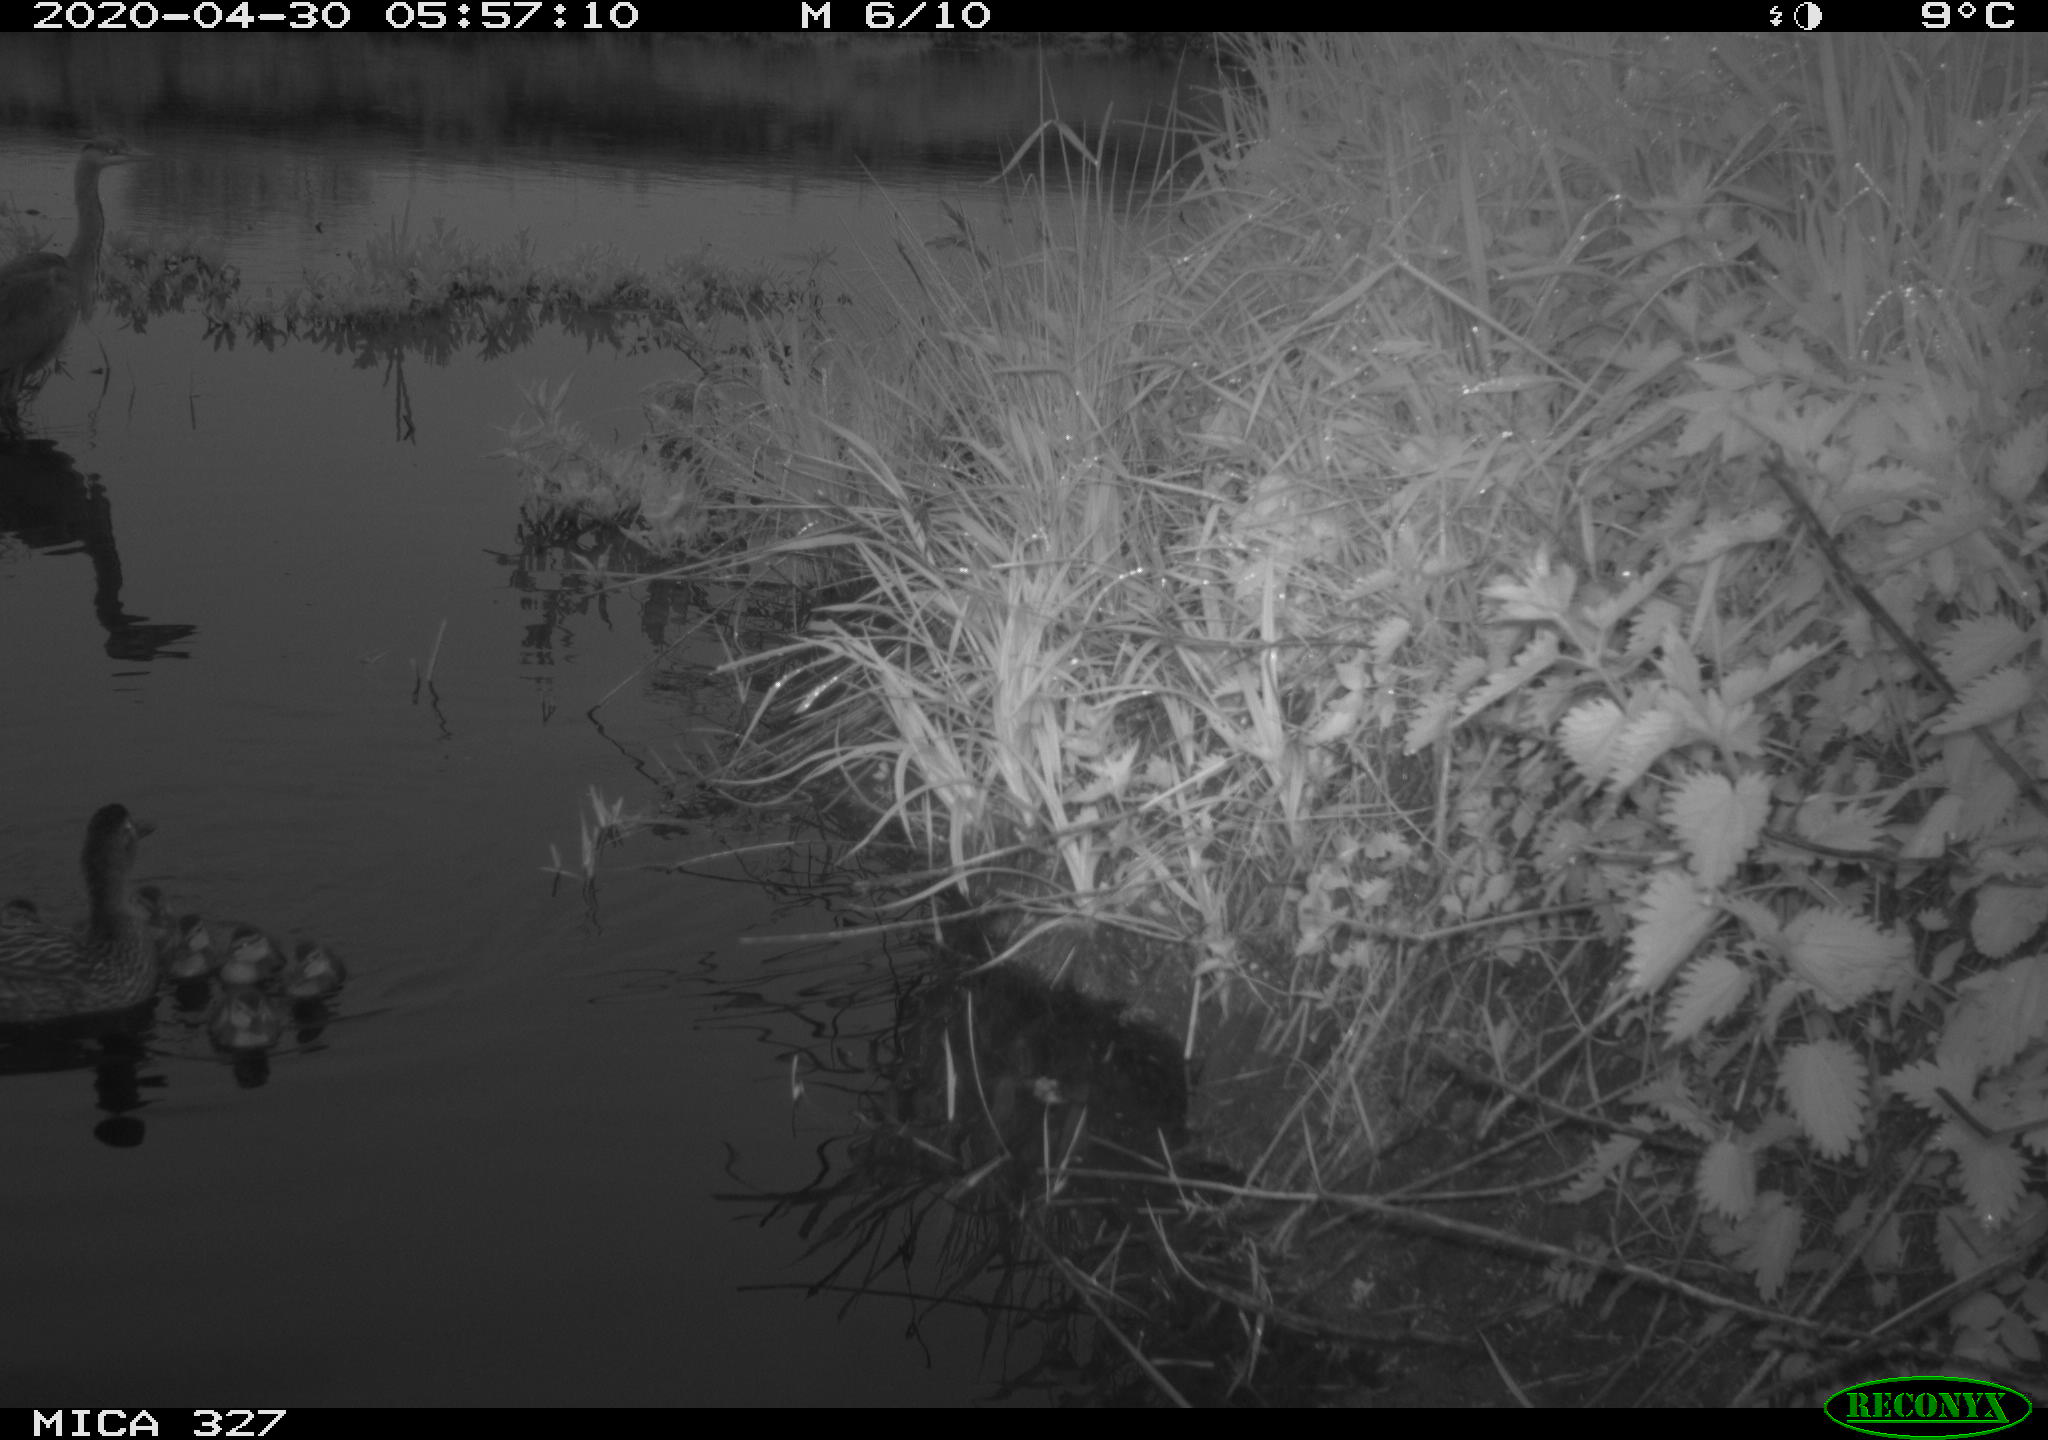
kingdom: Animalia
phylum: Chordata
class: Aves
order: Anseriformes
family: Anatidae
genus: Anas
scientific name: Anas platyrhynchos
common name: Mallard
